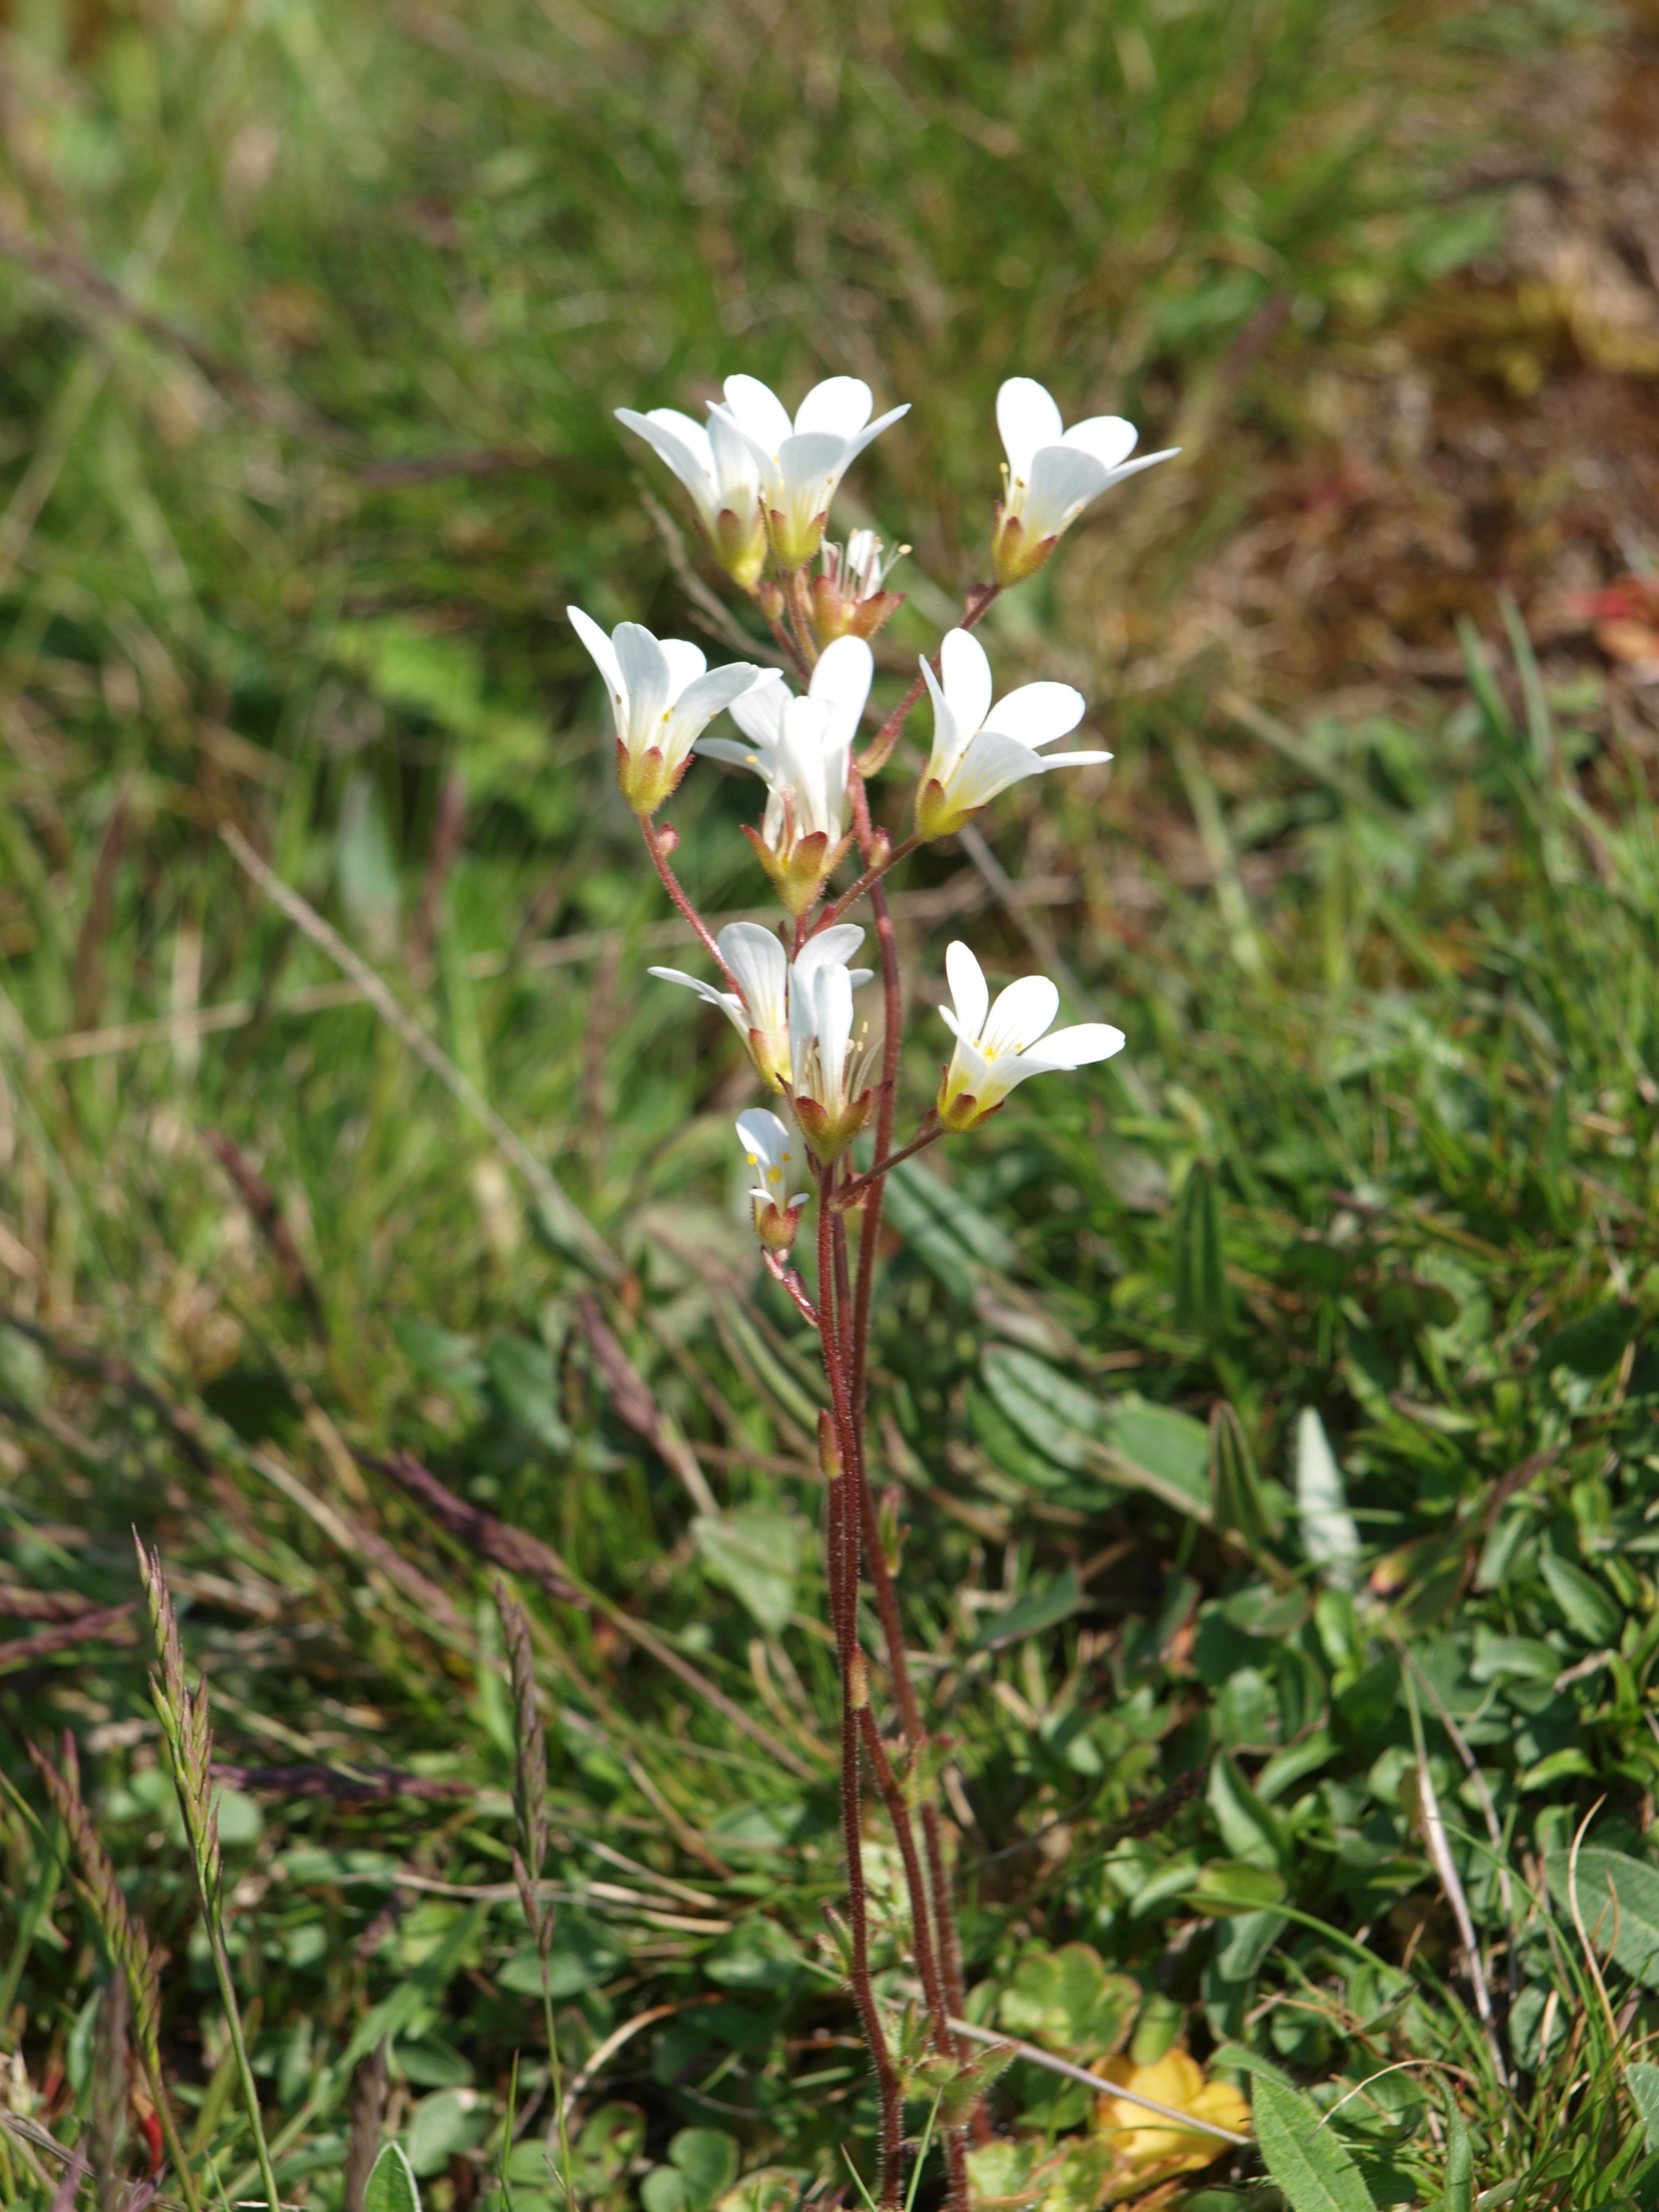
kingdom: Plantae
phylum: Tracheophyta
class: Magnoliopsida
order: Saxifragales
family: Saxifragaceae
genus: Saxifraga
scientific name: Saxifraga granulata
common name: Kornet stenbræk
